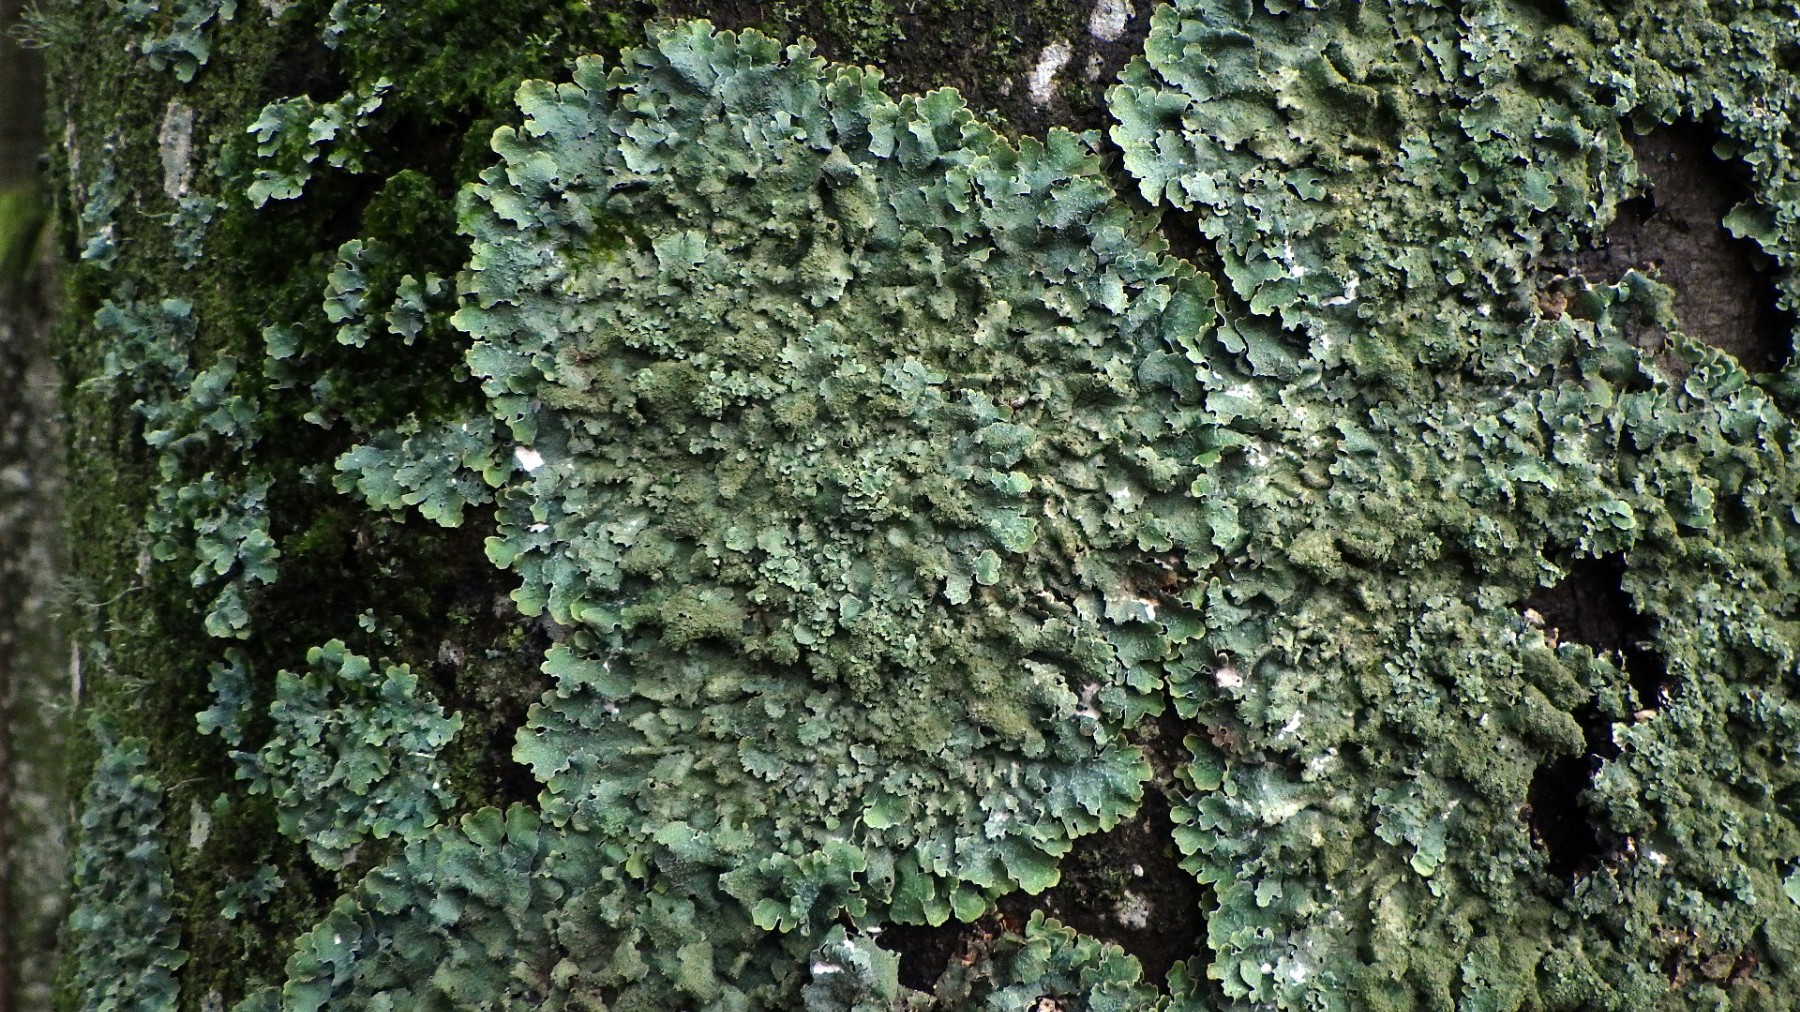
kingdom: Fungi
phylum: Ascomycota
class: Lecanoromycetes
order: Lecanorales
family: Parmeliaceae
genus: Parmelia
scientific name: Parmelia ernstiae
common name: rimstift-skållav
